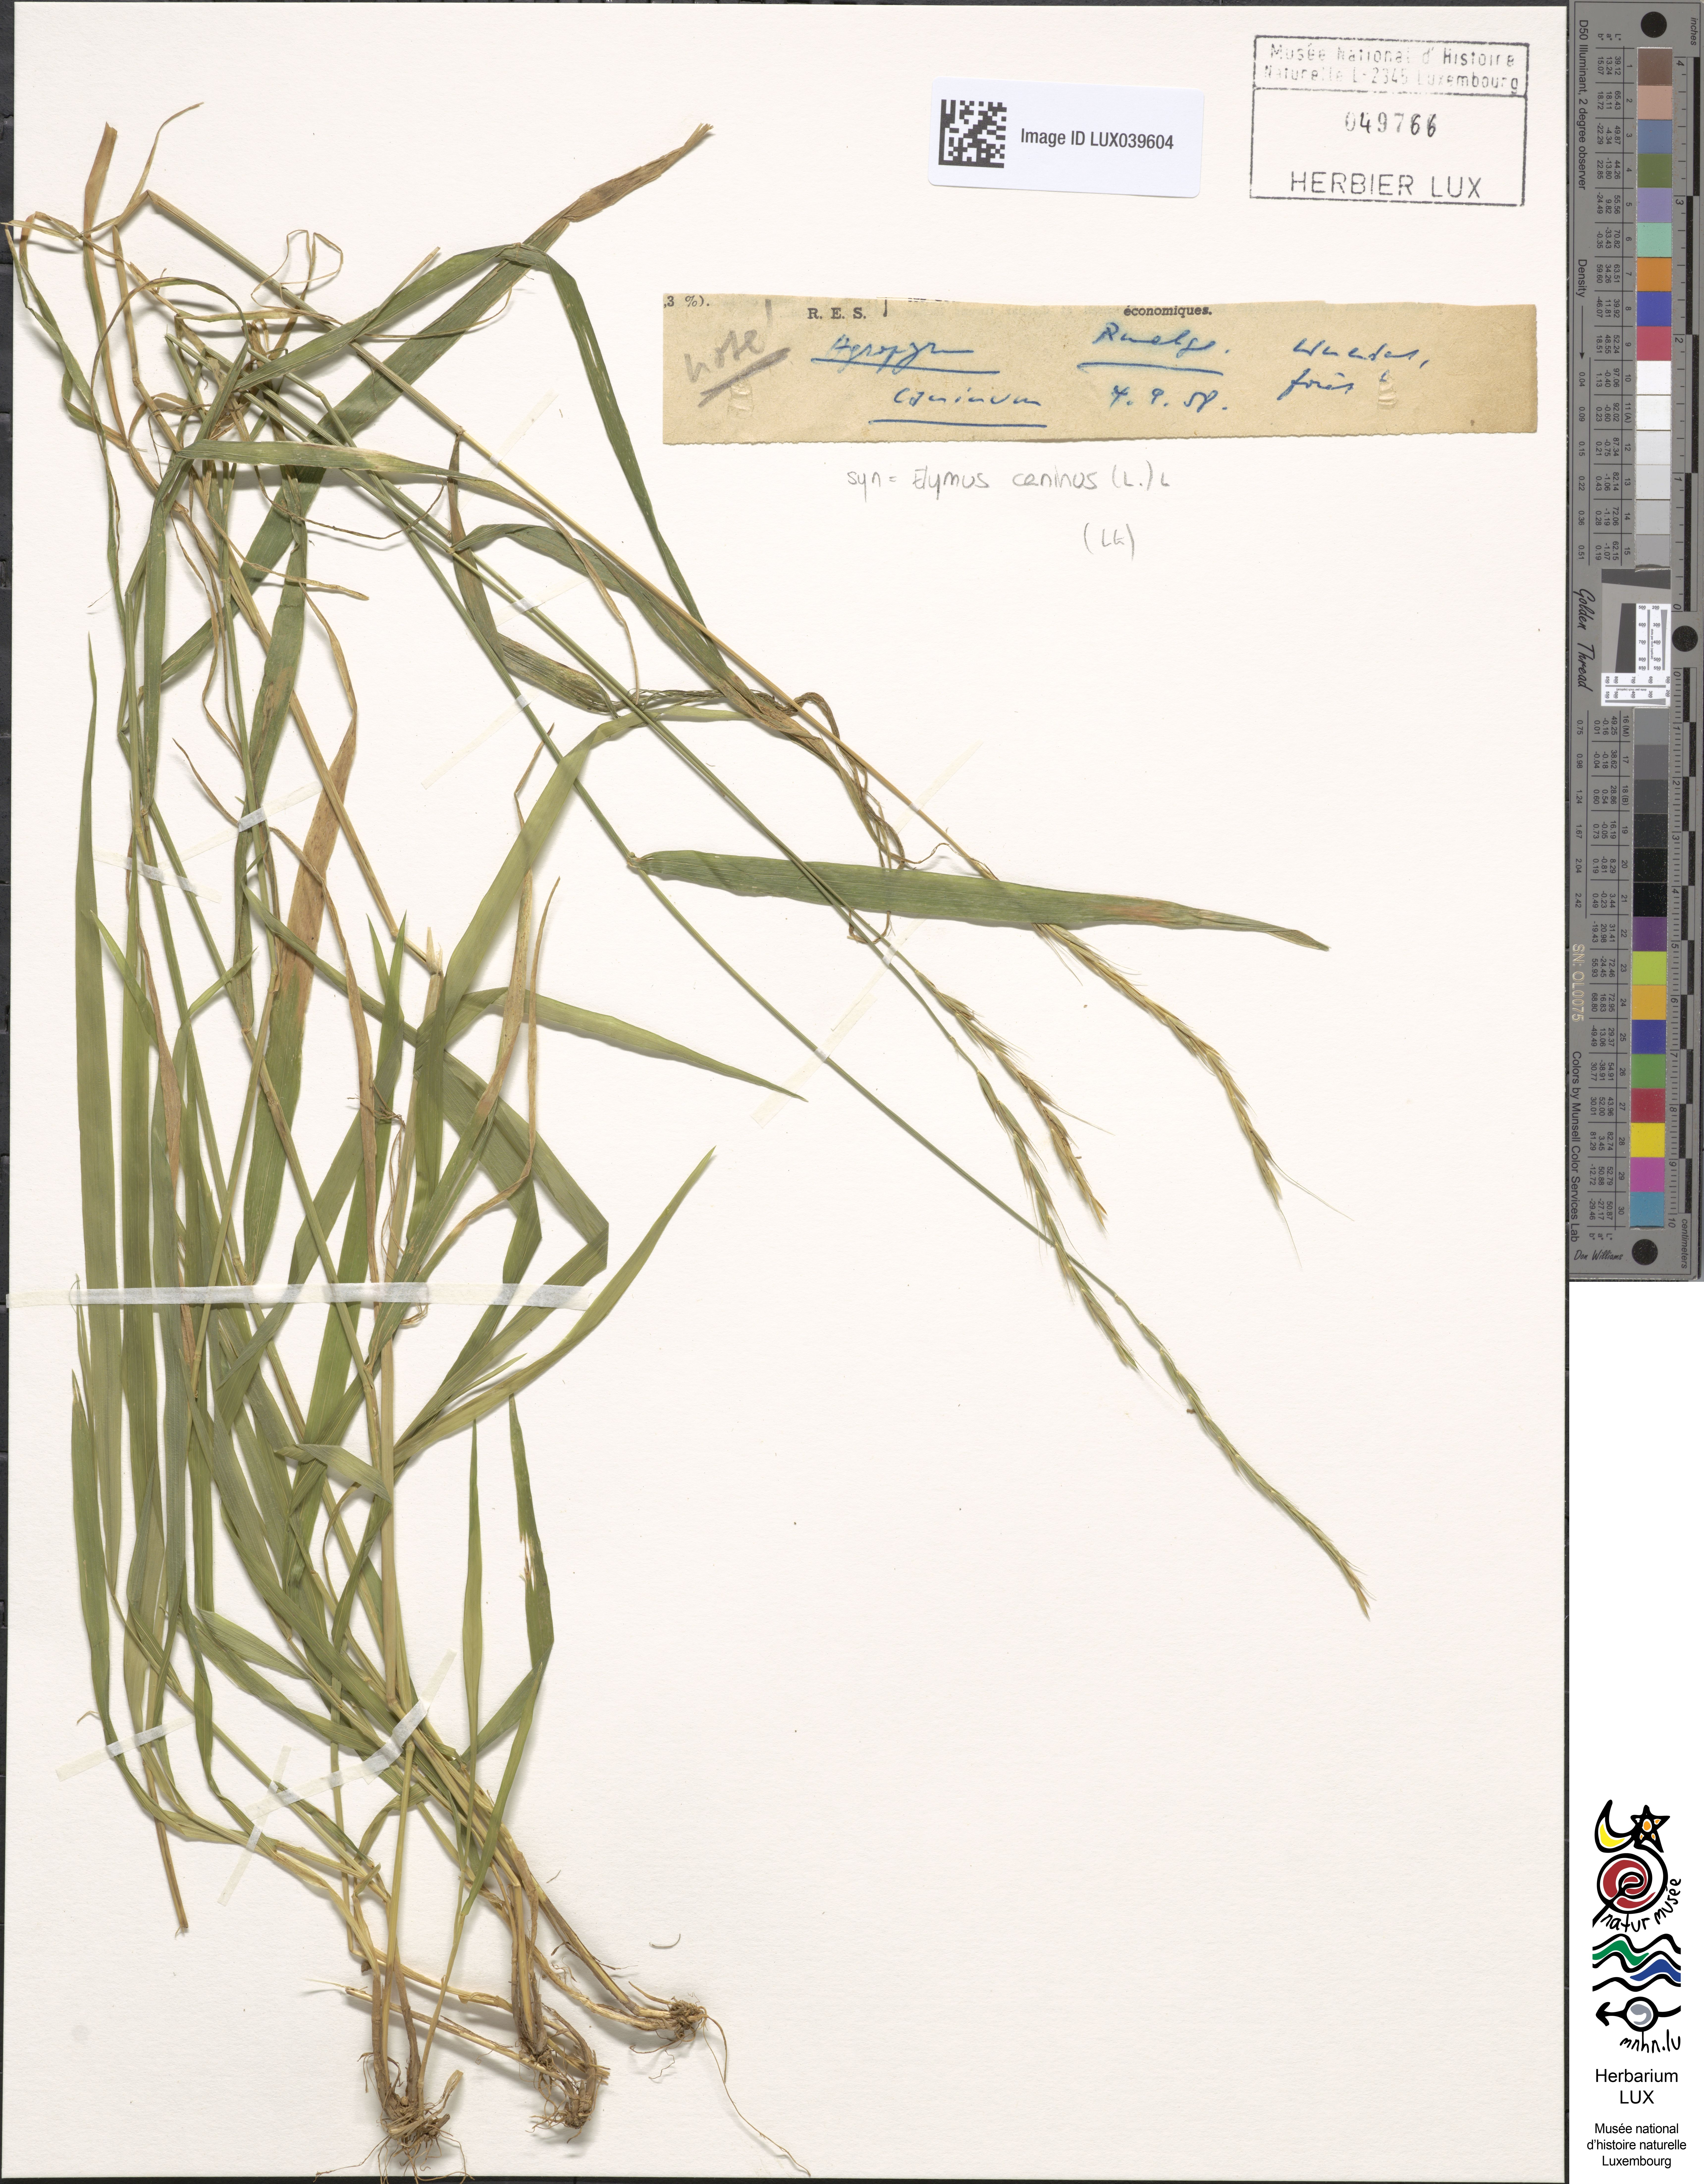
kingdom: Plantae
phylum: Tracheophyta
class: Liliopsida
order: Poales
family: Poaceae
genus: Elymus
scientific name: Elymus caninus
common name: Bearded couch
